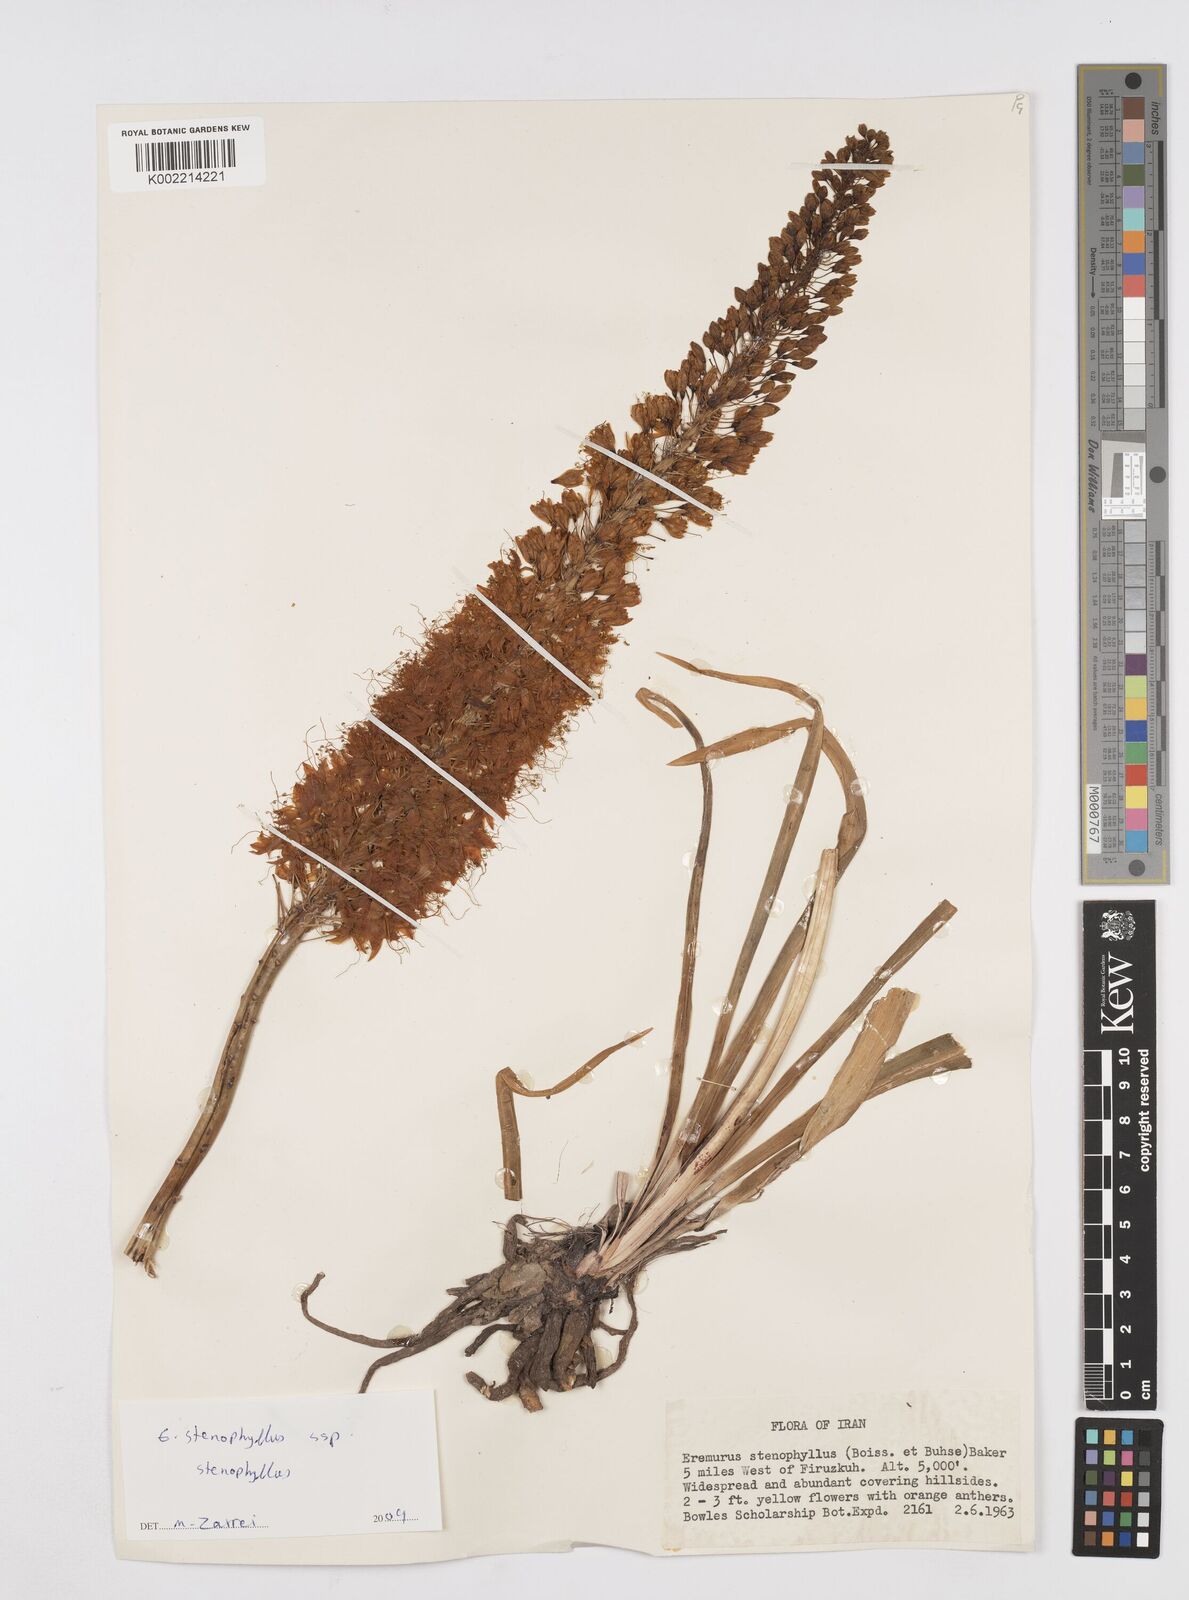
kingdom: Plantae
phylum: Tracheophyta
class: Liliopsida
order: Asparagales
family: Asphodelaceae
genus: Eremurus
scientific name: Eremurus stenophyllus
